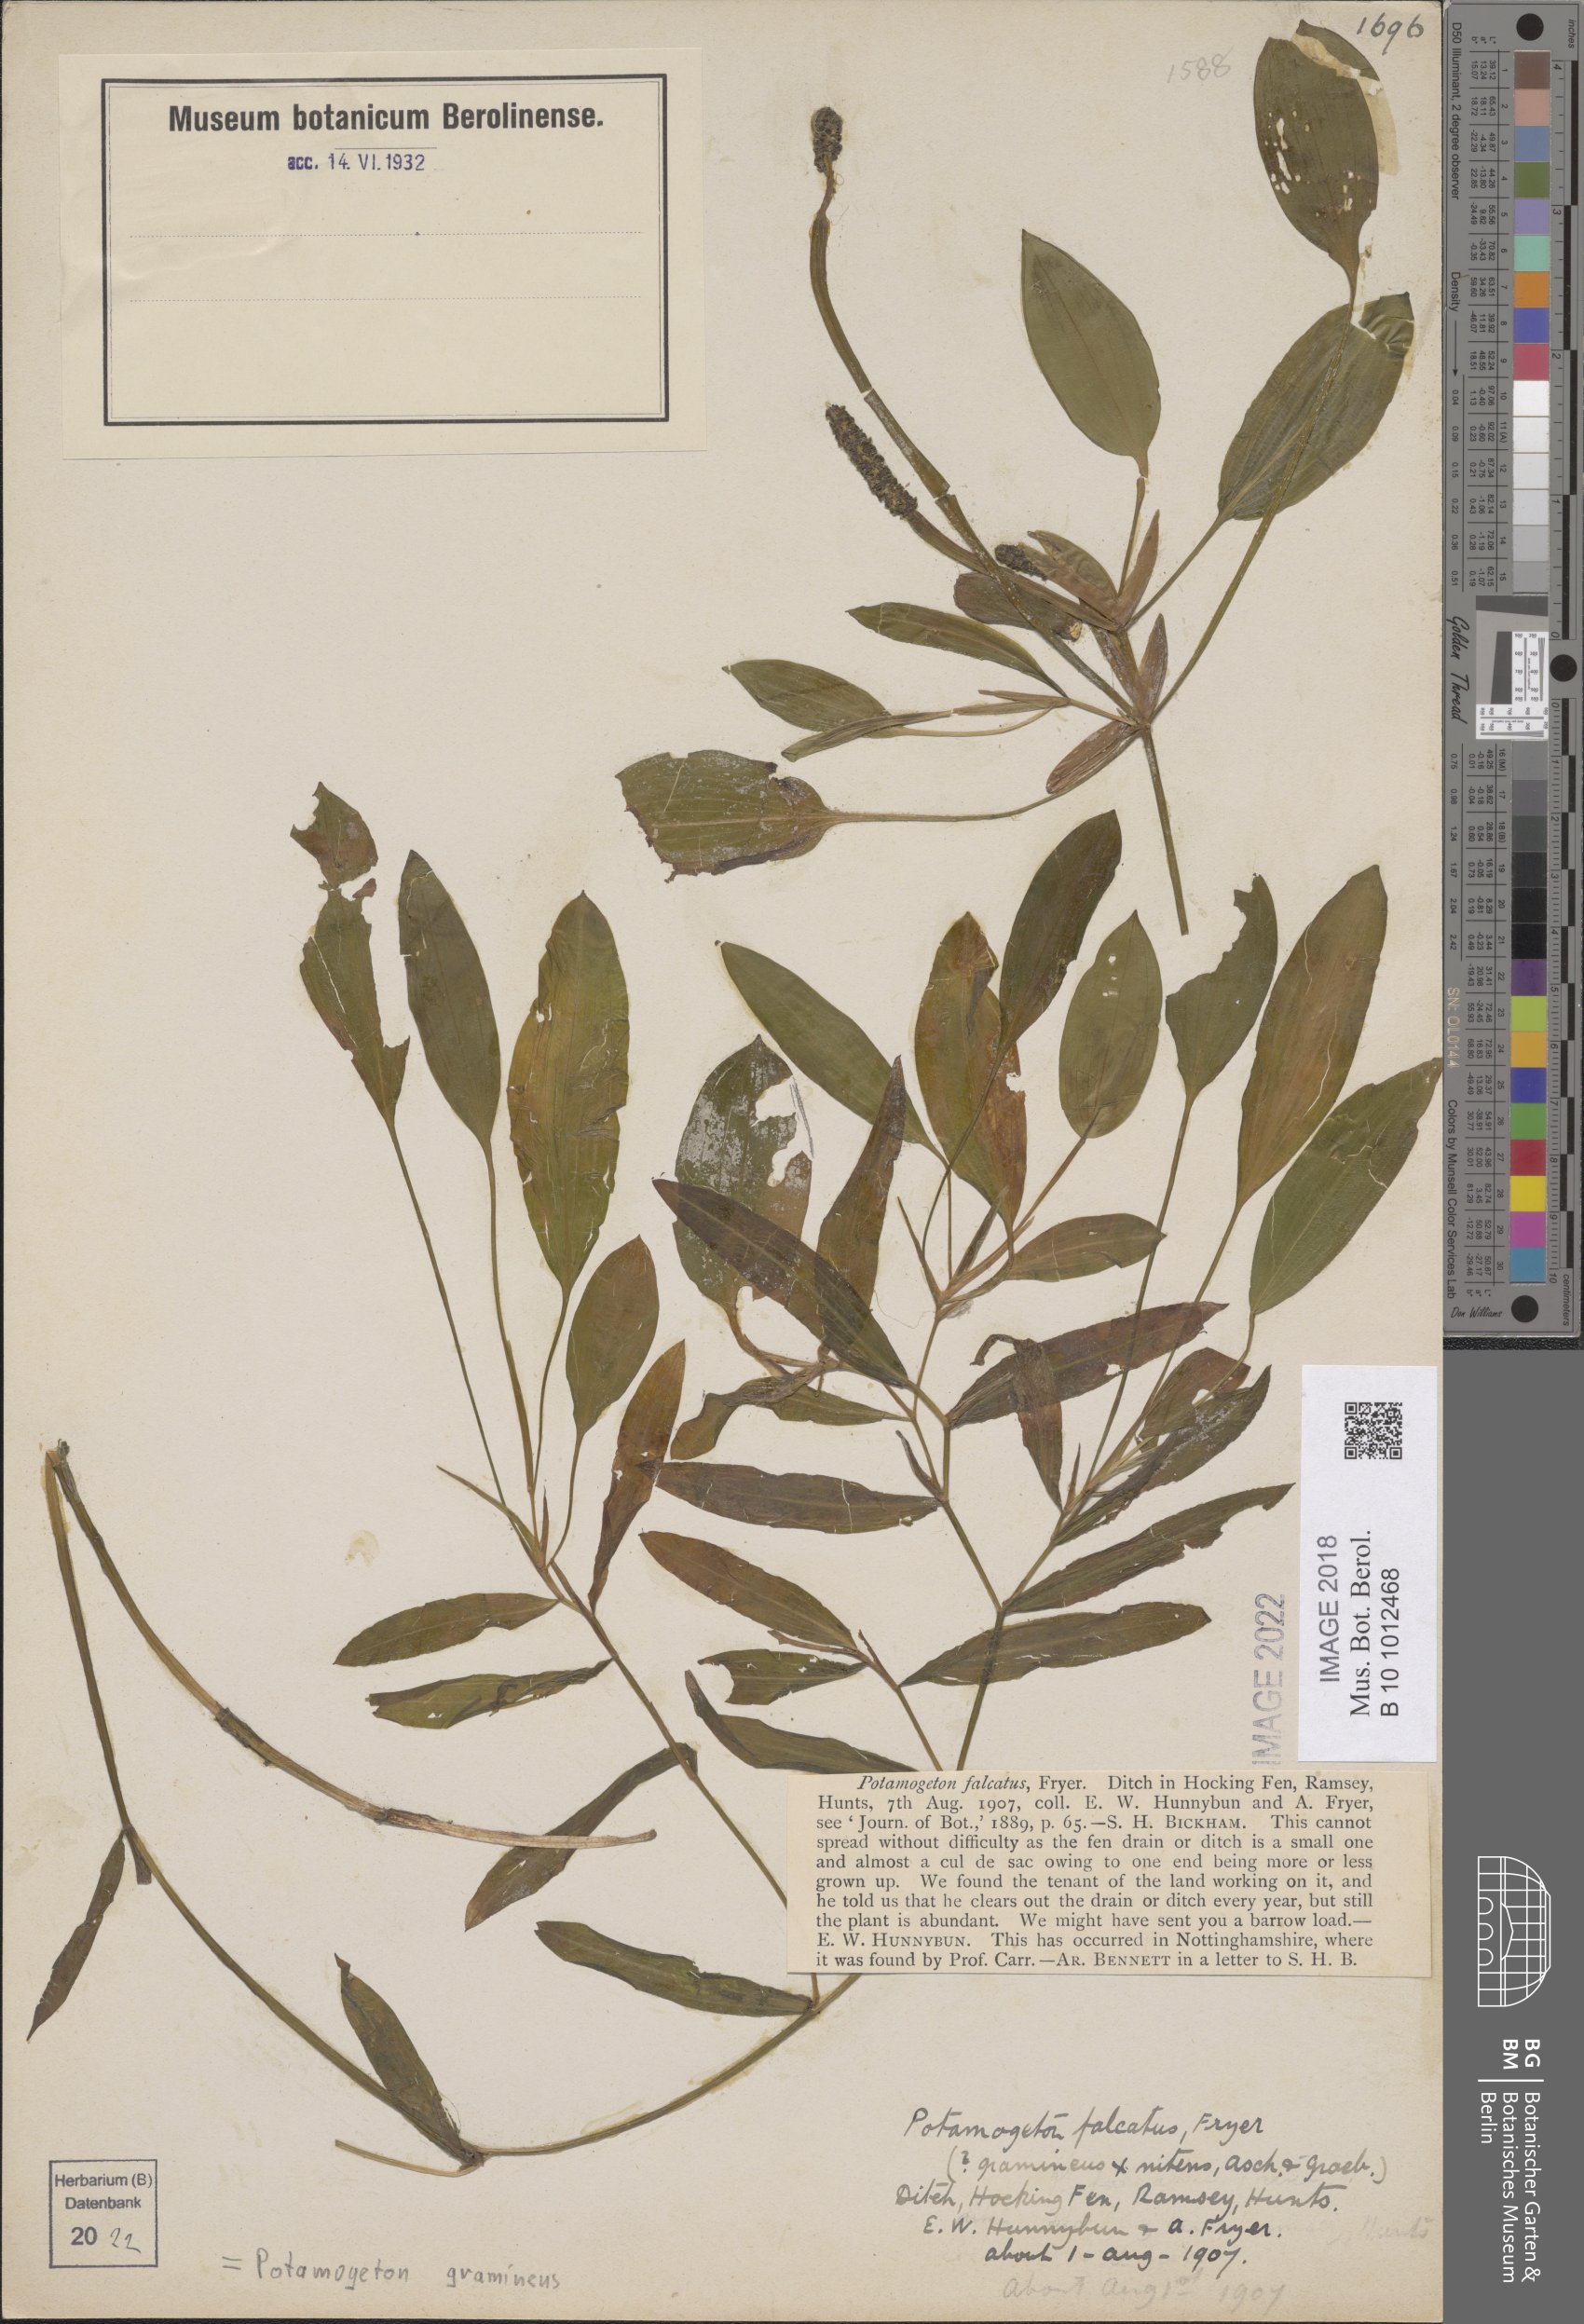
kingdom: Plantae
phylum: Tracheophyta
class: Liliopsida
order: Alismatales
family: Potamogetonaceae
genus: Potamogeton
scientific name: Potamogeton gramineus
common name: Various-leaved pondweed
